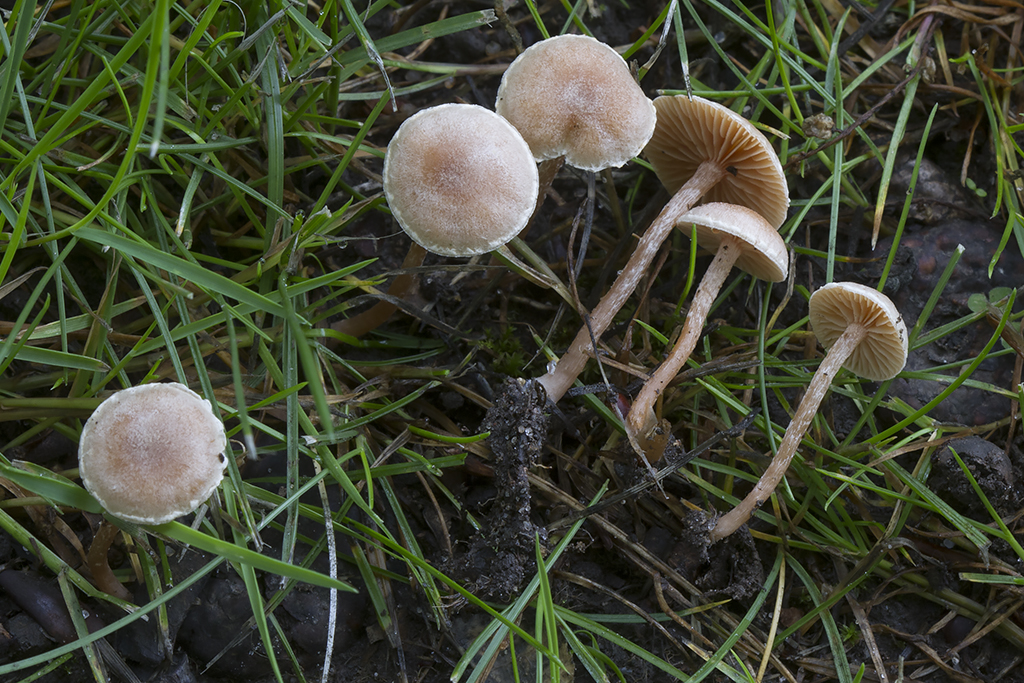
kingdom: Fungi
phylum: Basidiomycota
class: Agaricomycetes
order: Agaricales
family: Tubariaceae
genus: Tubaria
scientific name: Tubaria conspersa
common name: bleg fnughat
